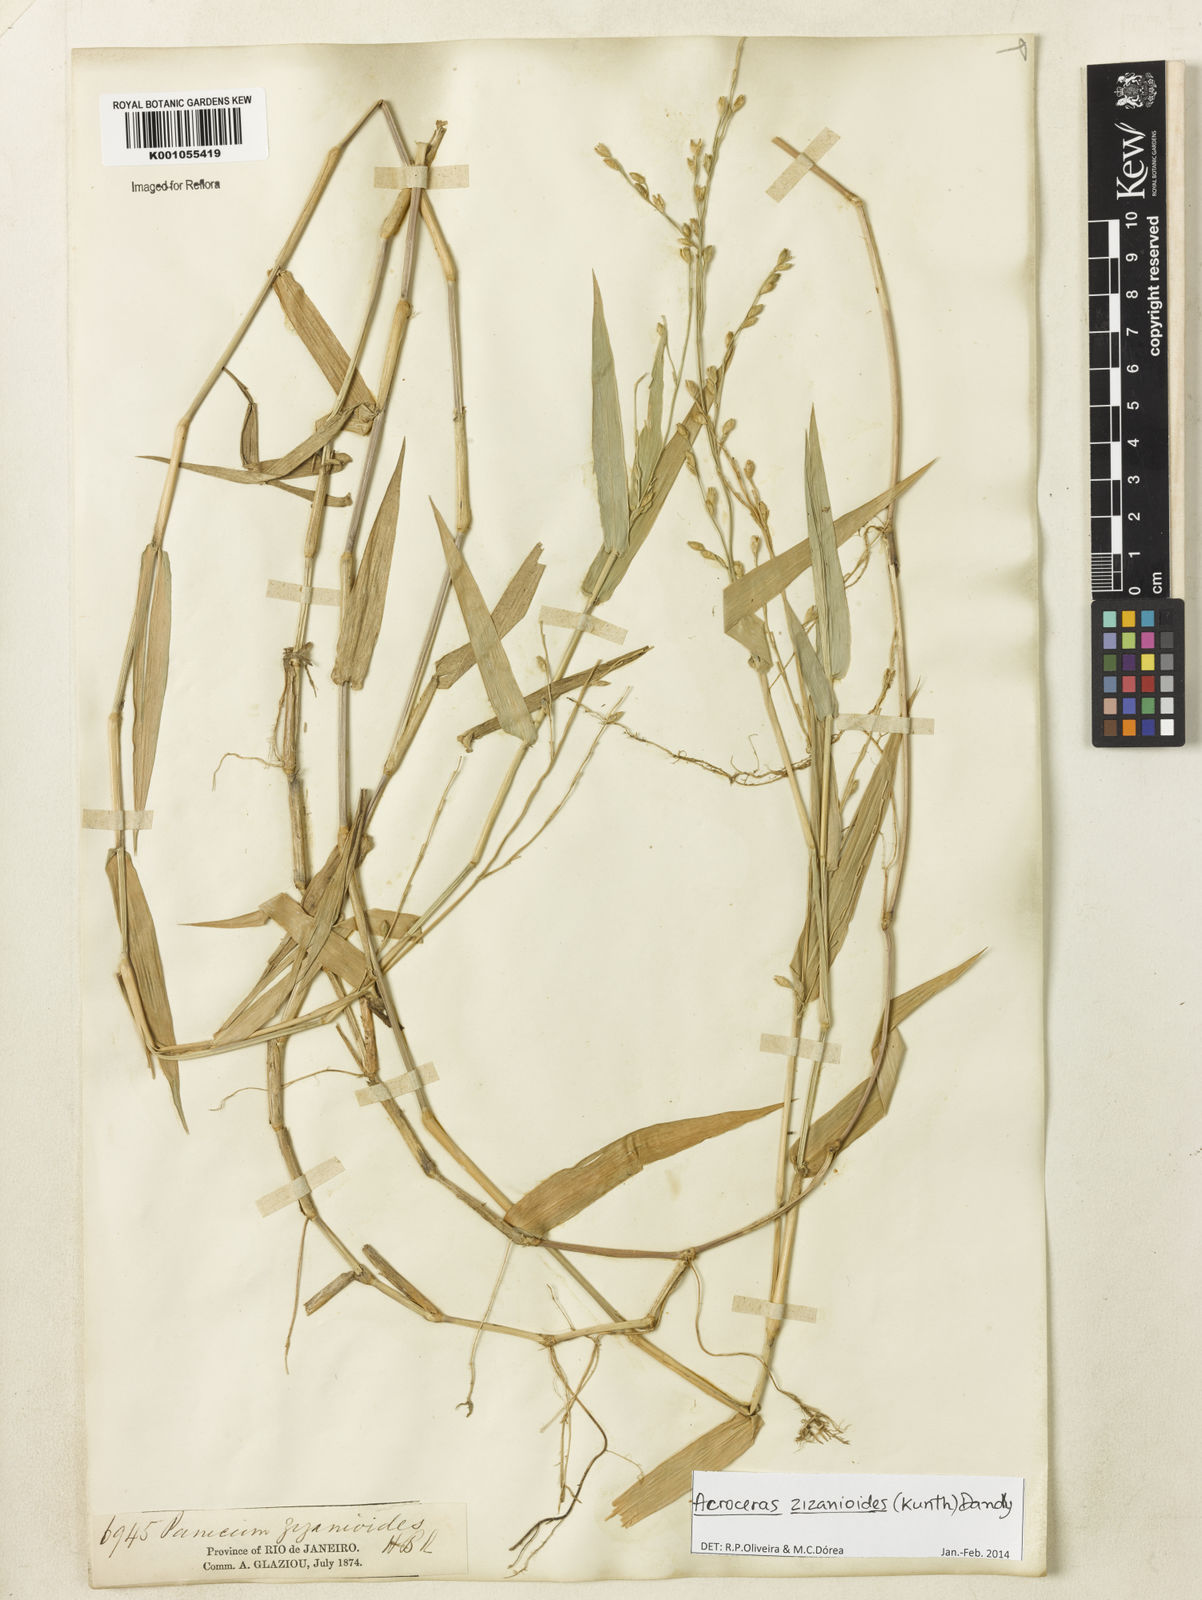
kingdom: Plantae
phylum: Tracheophyta
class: Liliopsida
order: Poales
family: Poaceae
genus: Acroceras
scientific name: Acroceras zizanioides
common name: Oat grass
